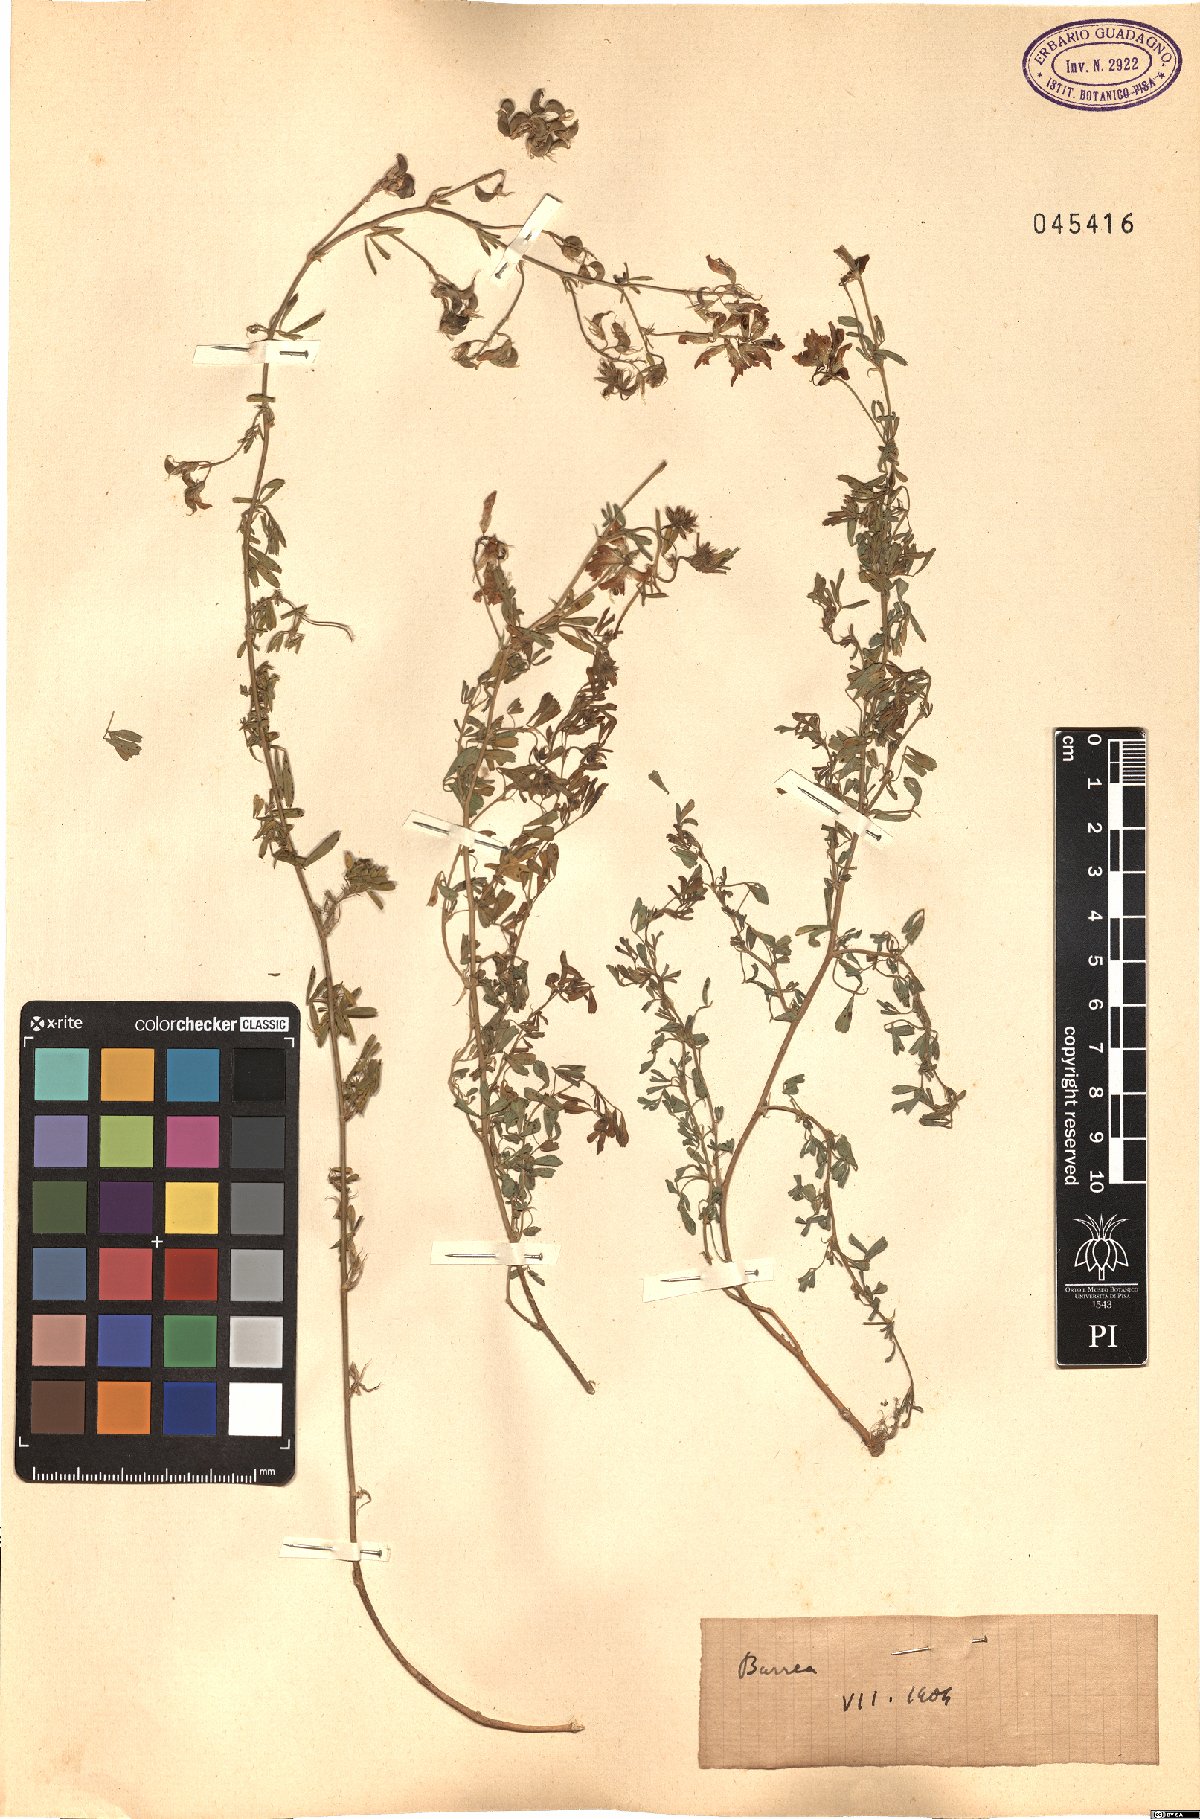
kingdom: Plantae
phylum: Tracheophyta
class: Magnoliopsida
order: Fabales
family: Fabaceae
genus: Medicago
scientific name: Medicago
